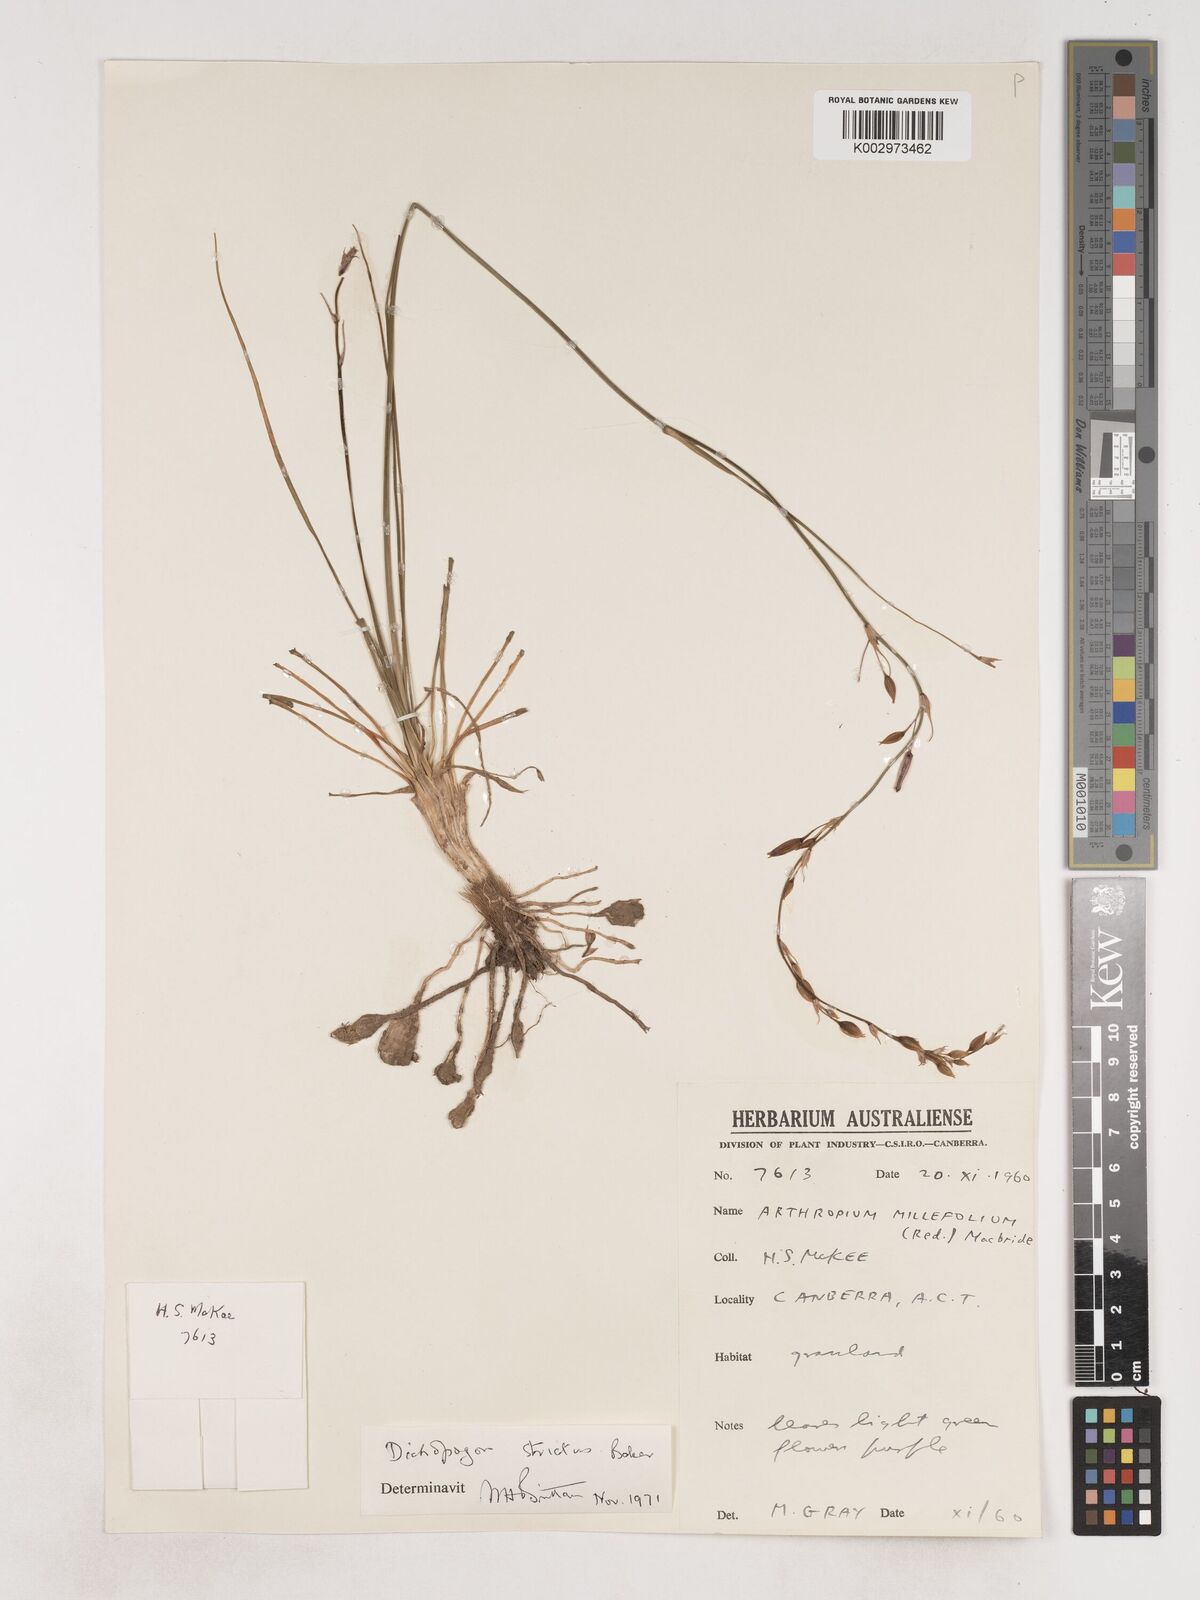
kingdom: Plantae
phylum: Tracheophyta
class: Liliopsida
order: Asparagales
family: Asparagaceae
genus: Arthropodium
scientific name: Arthropodium strictum
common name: Chocolate-lily
